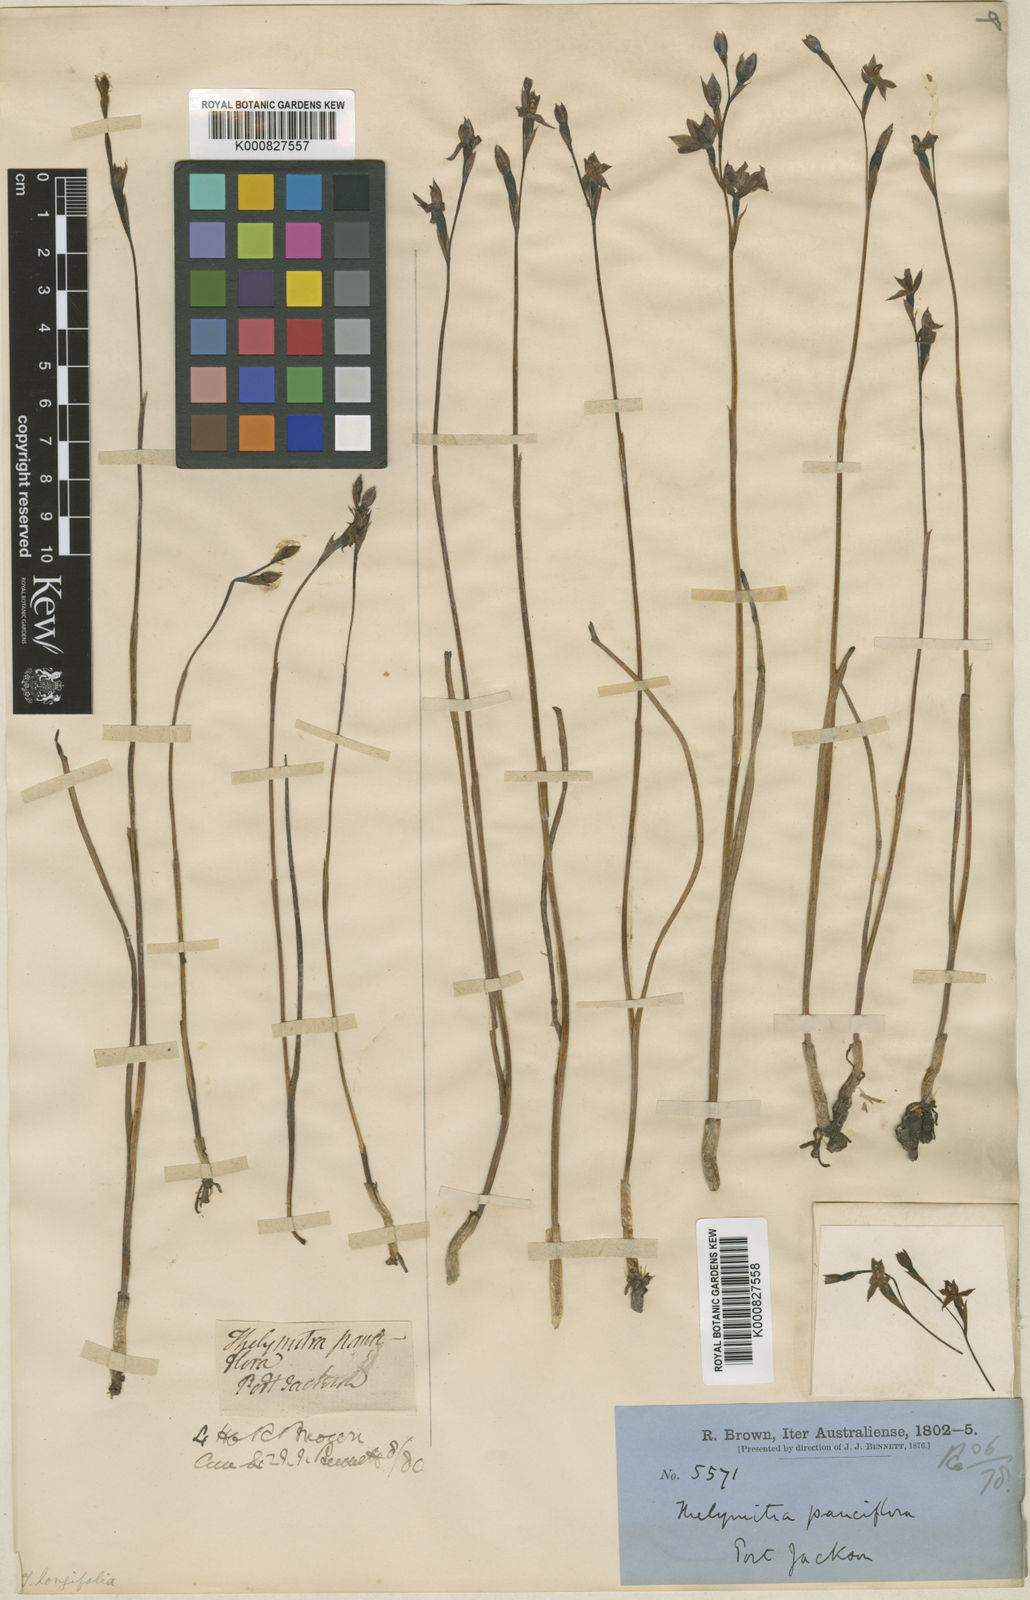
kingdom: Plantae
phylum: Tracheophyta
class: Liliopsida
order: Asparagales
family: Orchidaceae
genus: Thelymitra
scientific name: Thelymitra pauciflora
